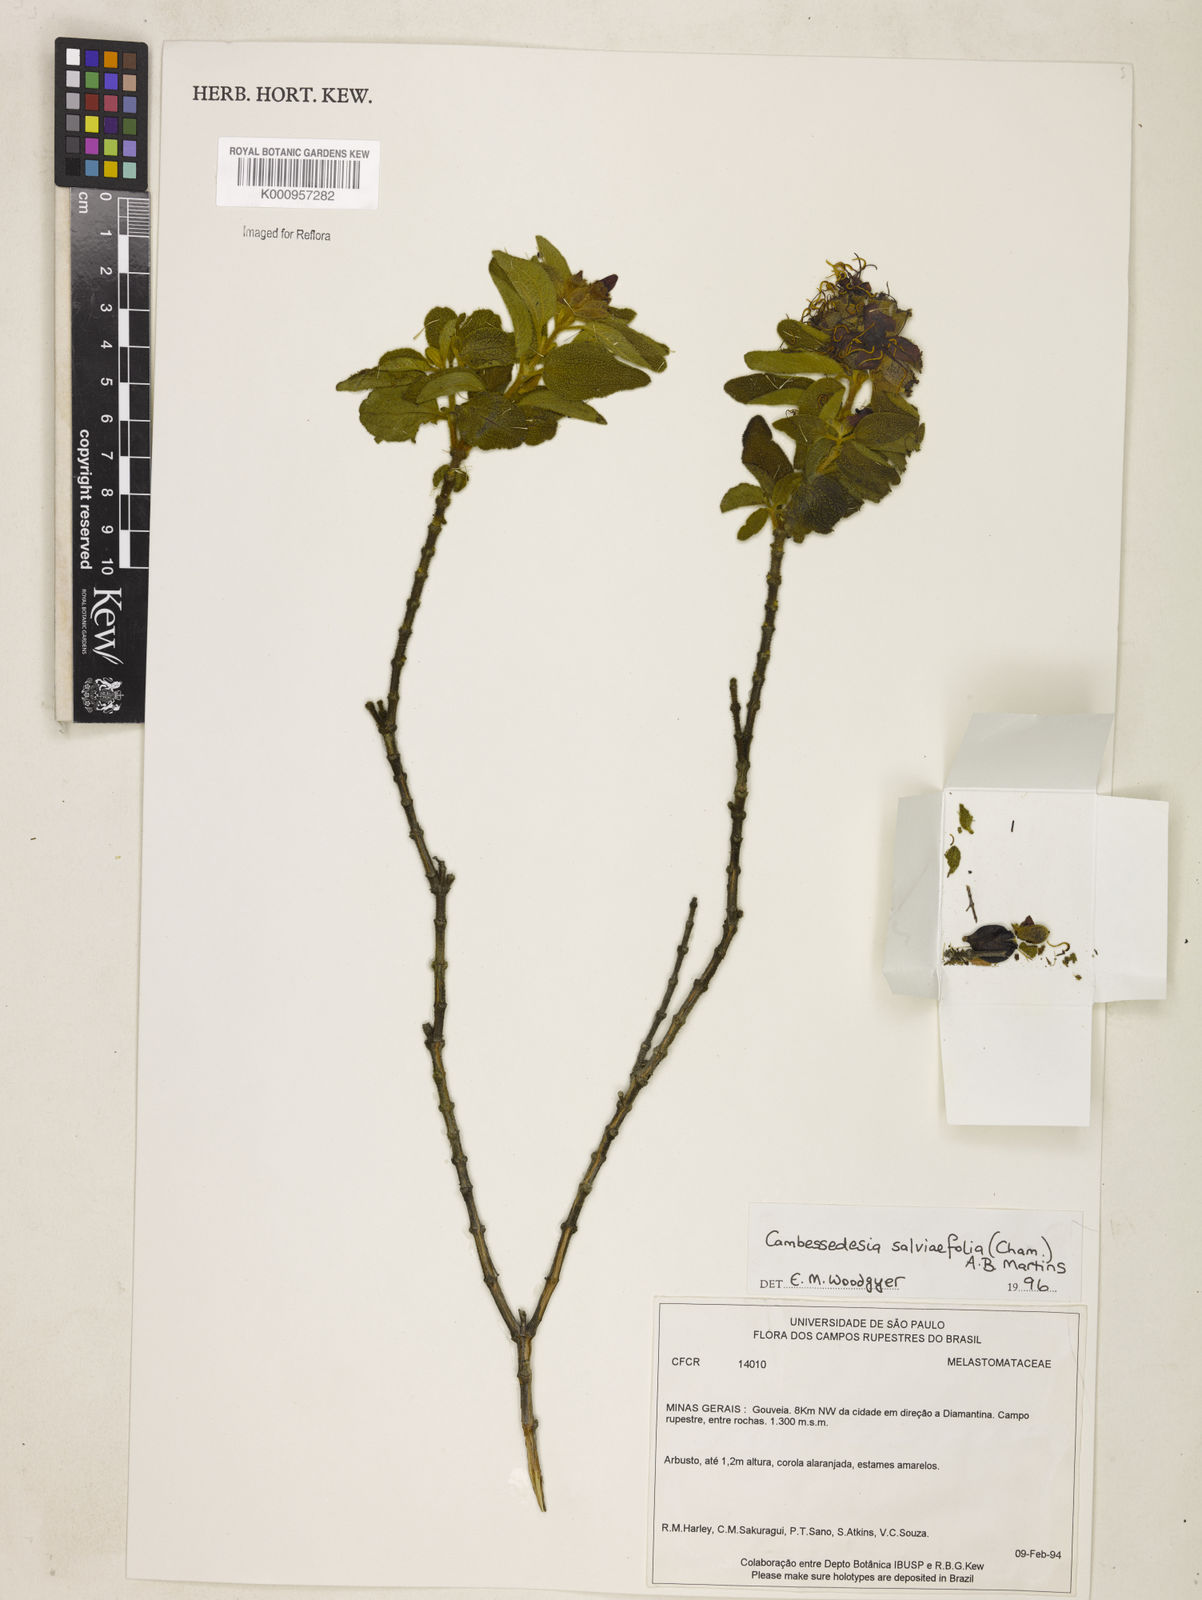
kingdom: Plantae
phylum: Tracheophyta
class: Magnoliopsida
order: Myrtales
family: Melastomataceae
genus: Cambessedesia
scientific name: Cambessedesia
